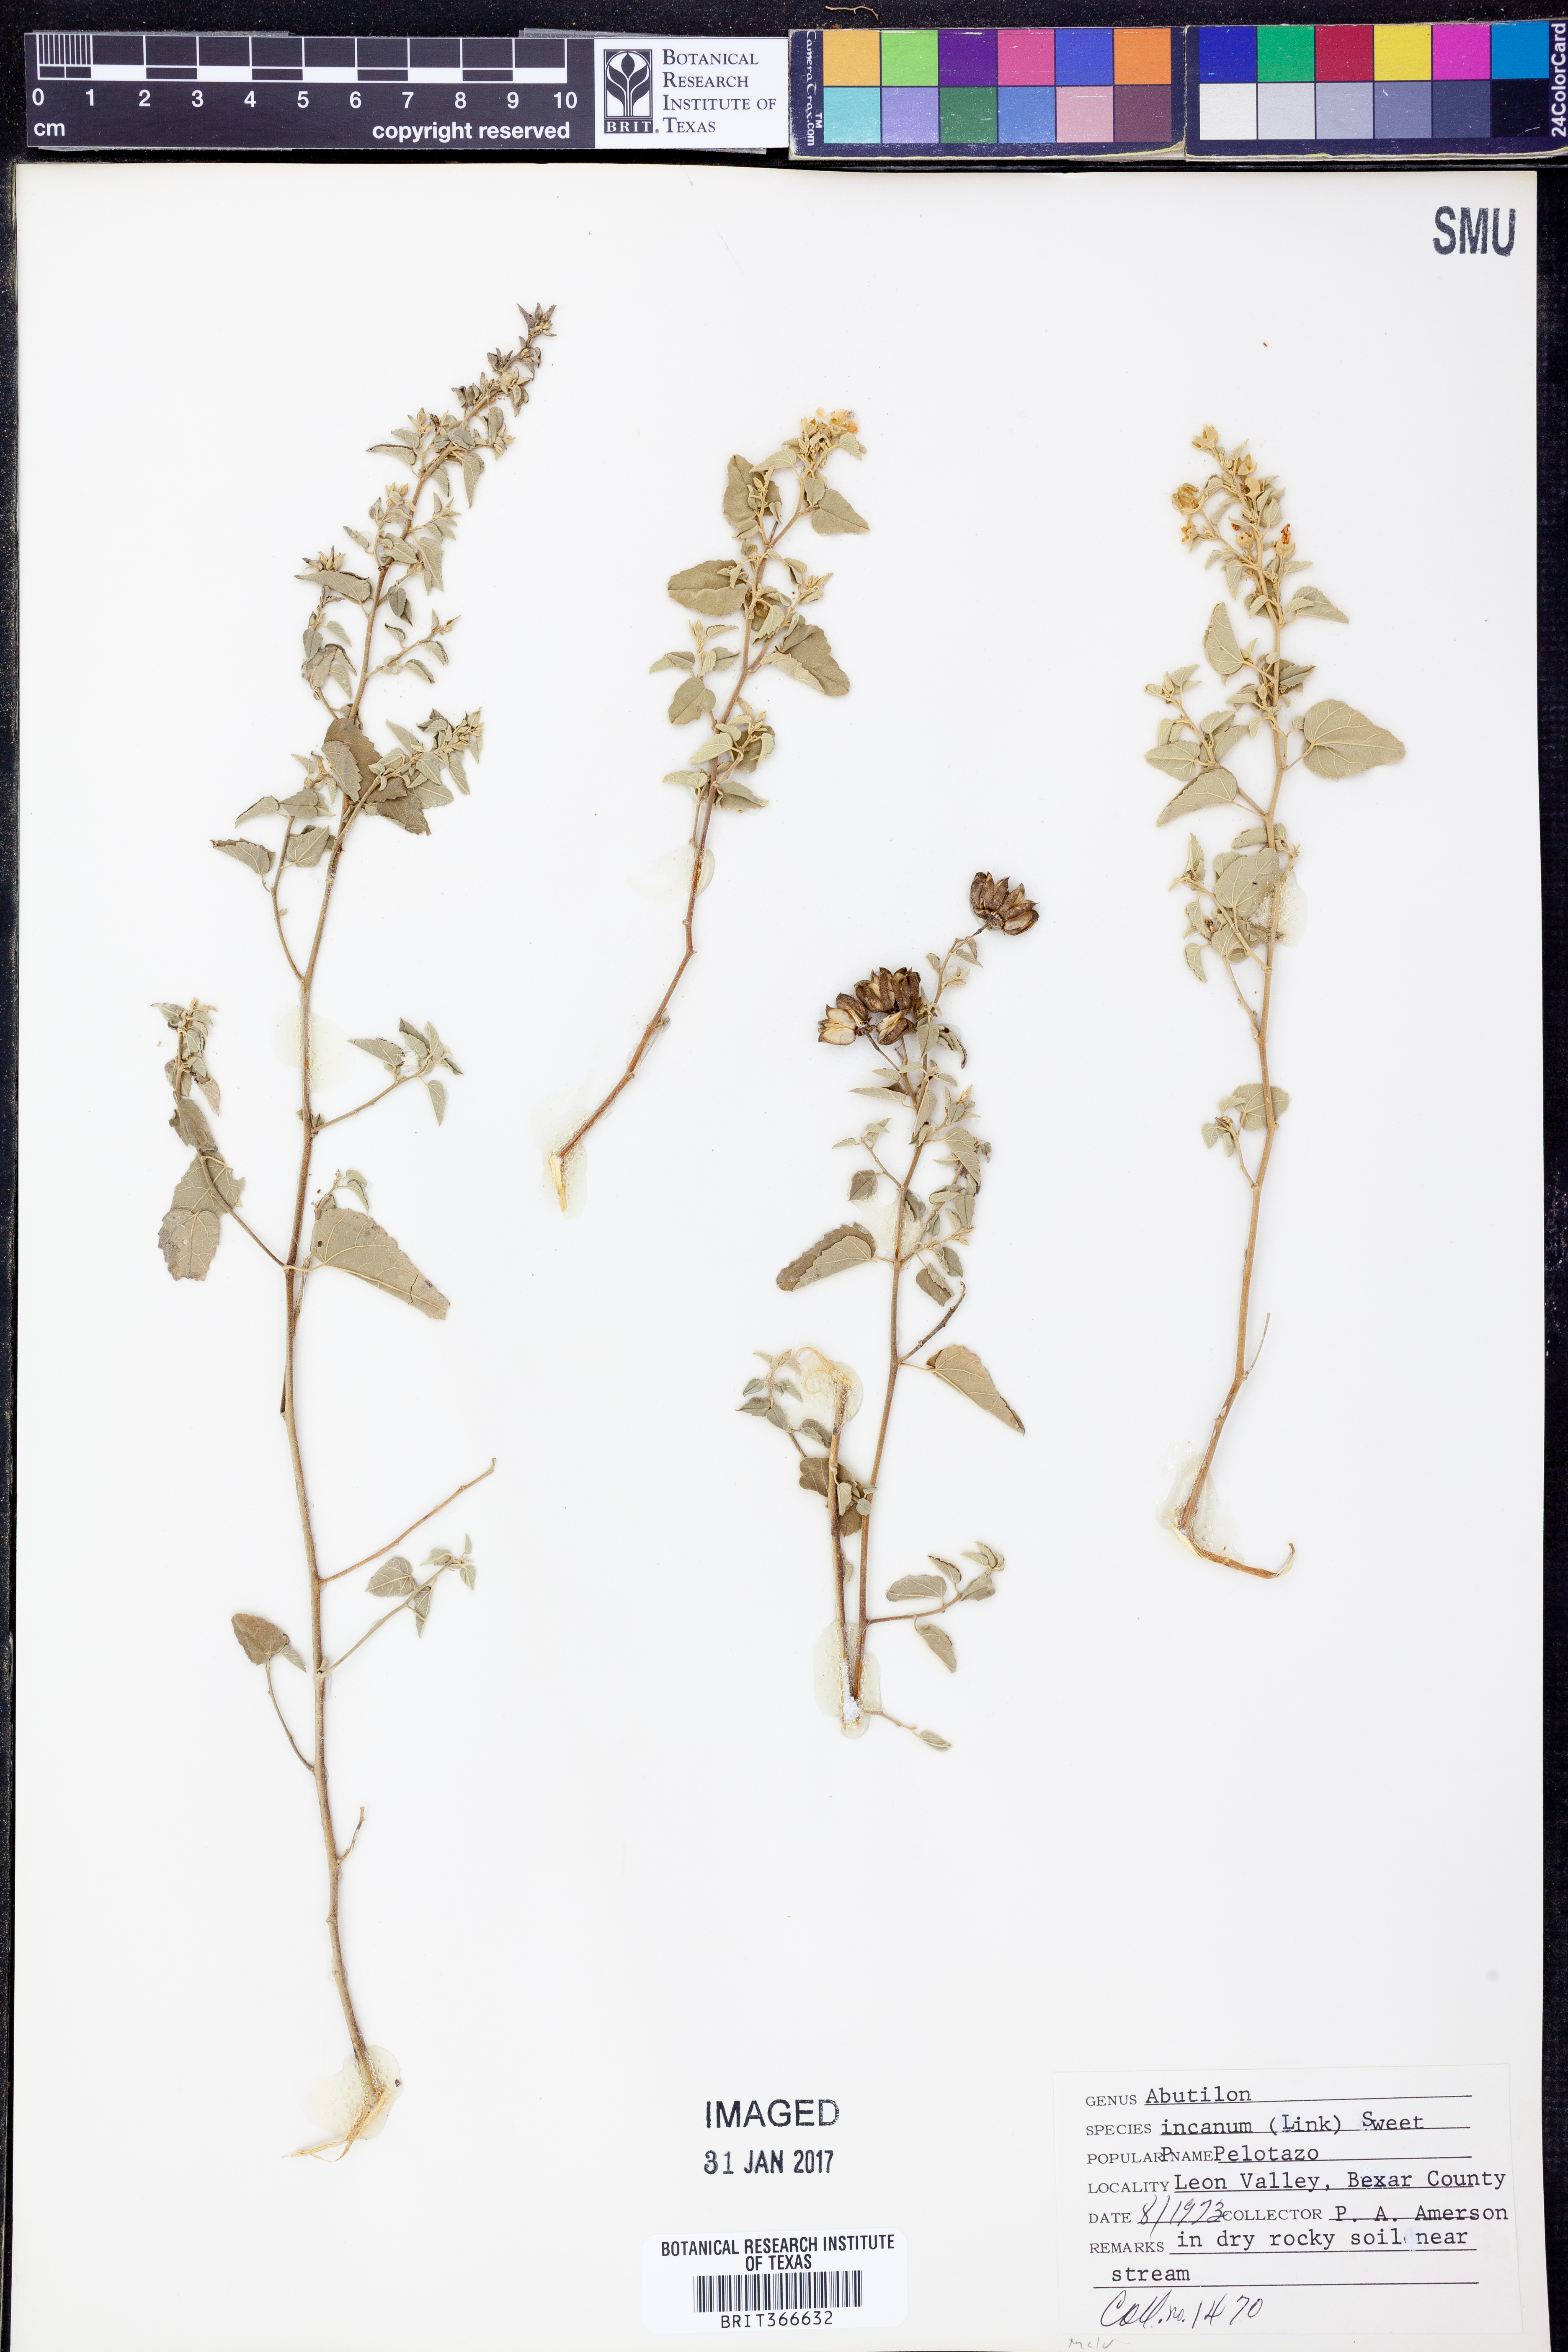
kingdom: Plantae
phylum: Tracheophyta
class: Magnoliopsida
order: Malvales
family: Malvaceae
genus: Abutilon
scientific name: Abutilon incanum
